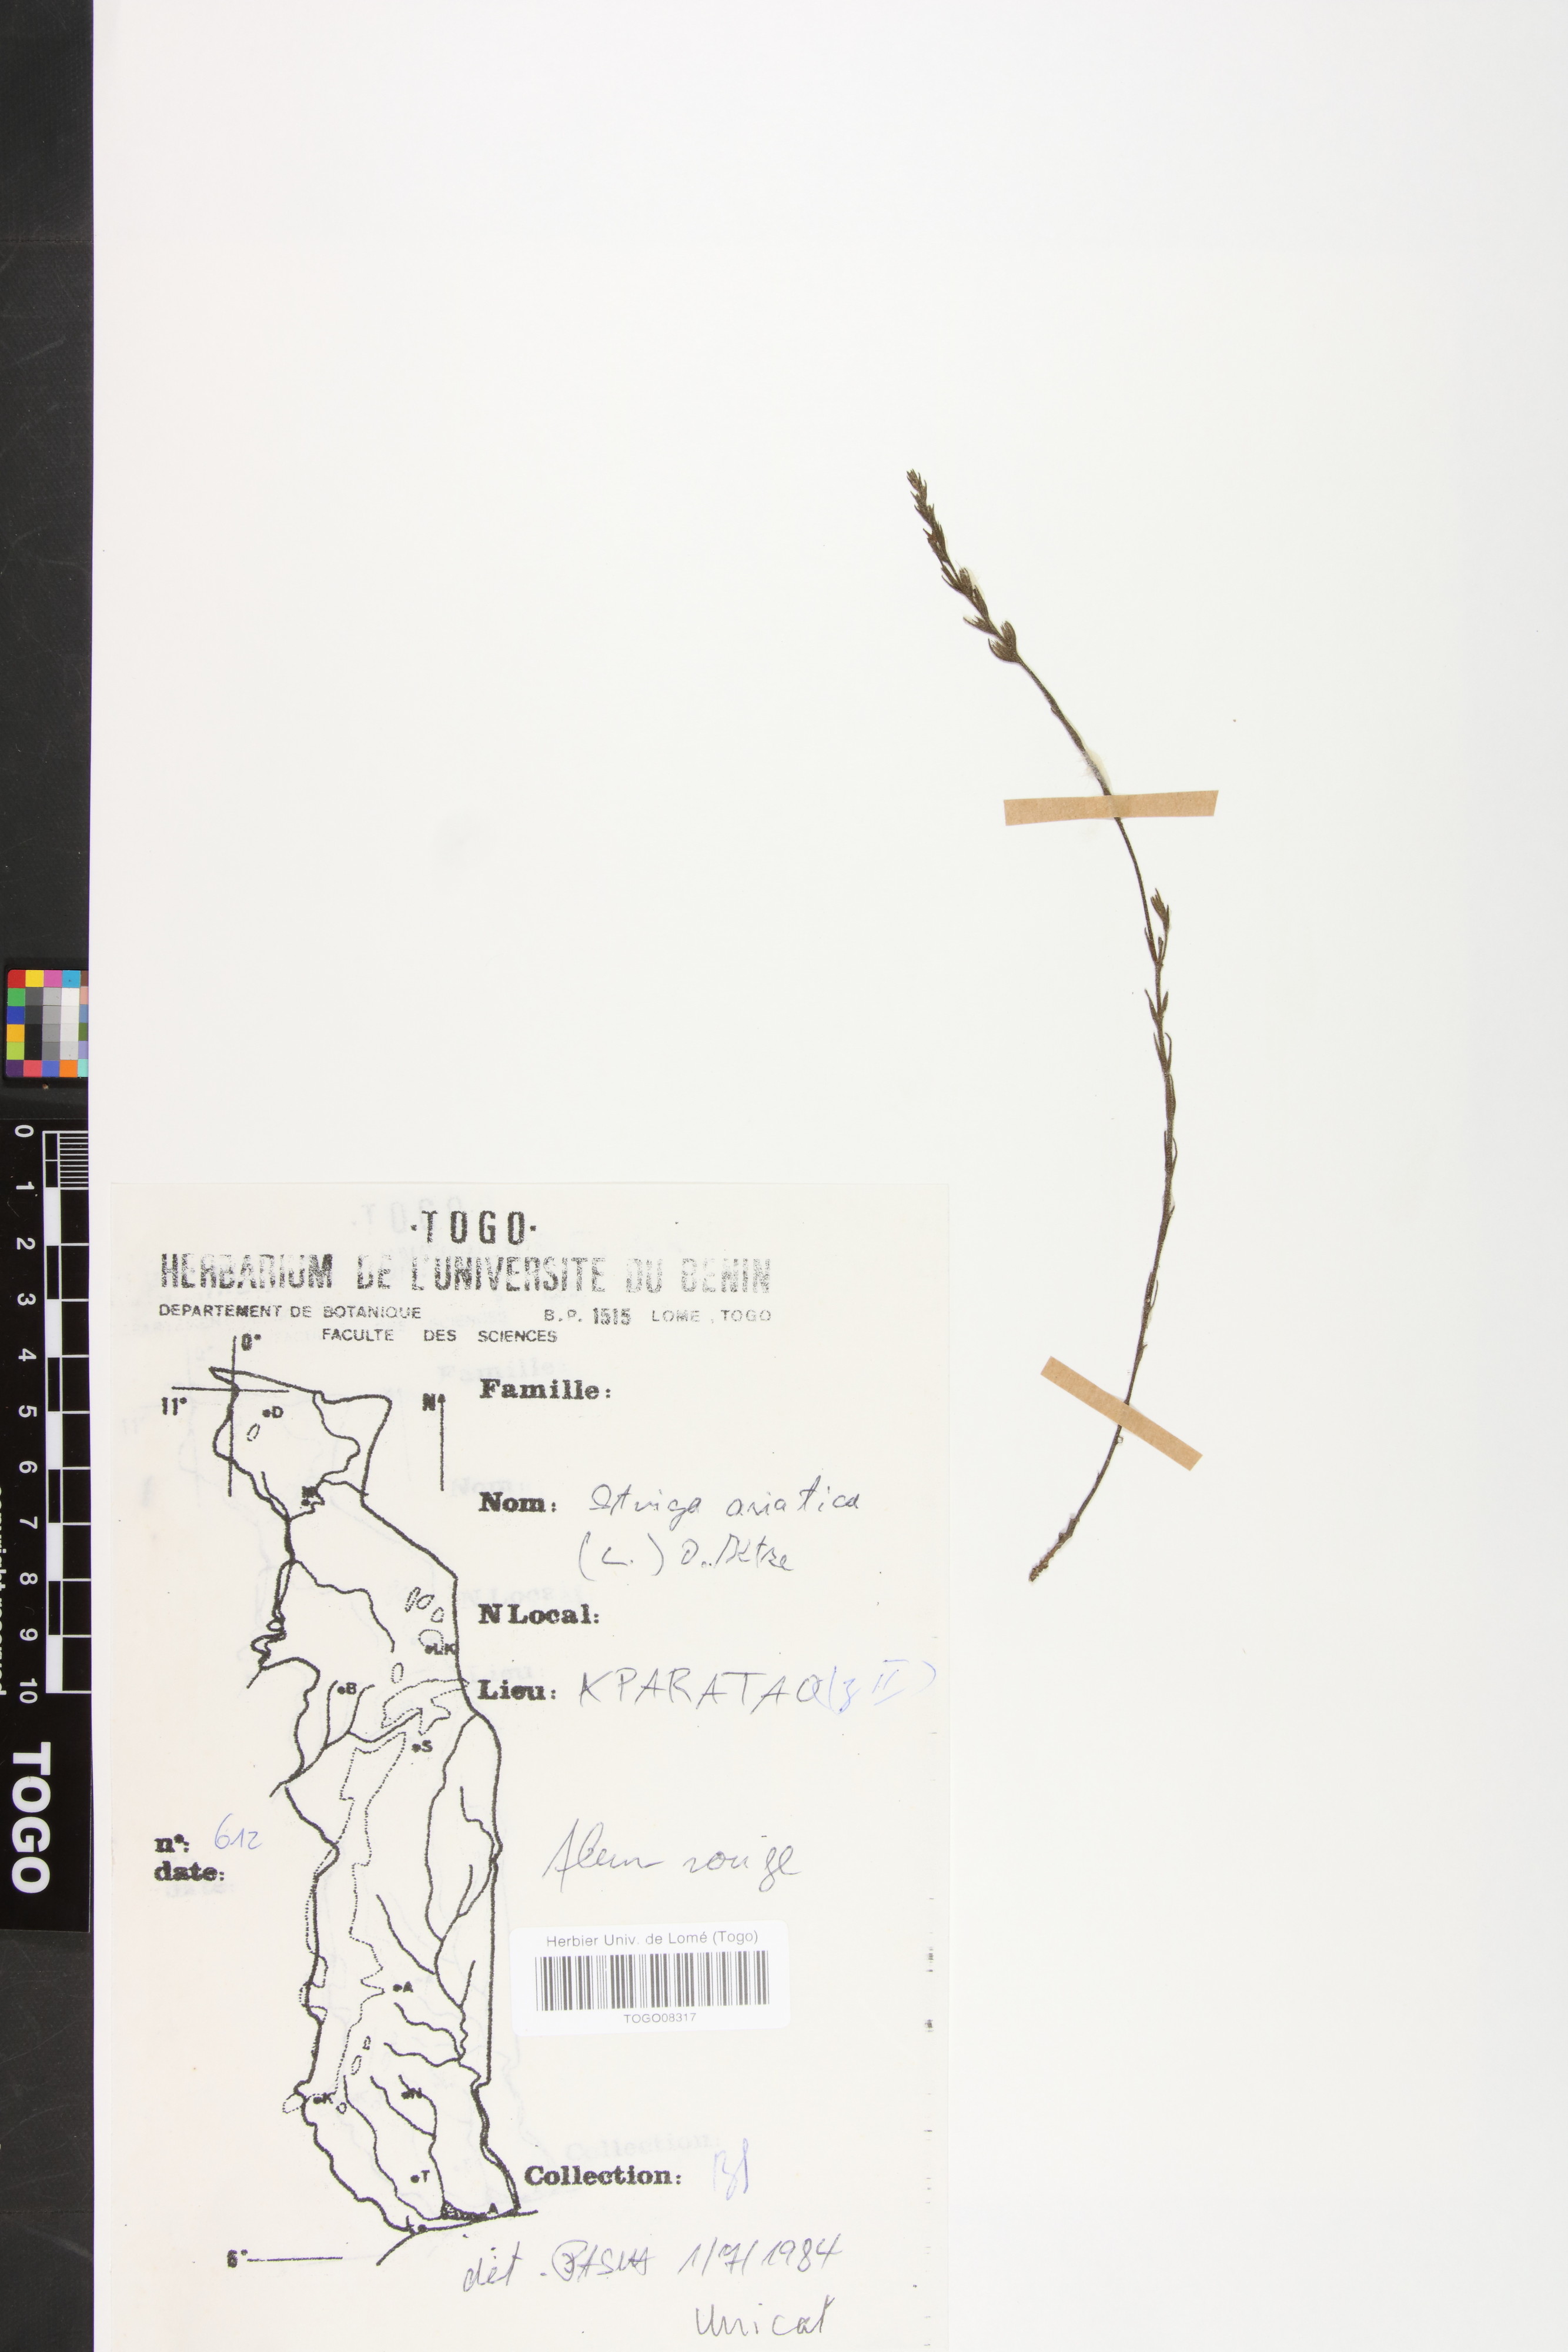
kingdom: Plantae
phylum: Tracheophyta
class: Magnoliopsida
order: Lamiales
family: Orobanchaceae
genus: Striga
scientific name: Striga asiatica
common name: Asiatic witchweed
